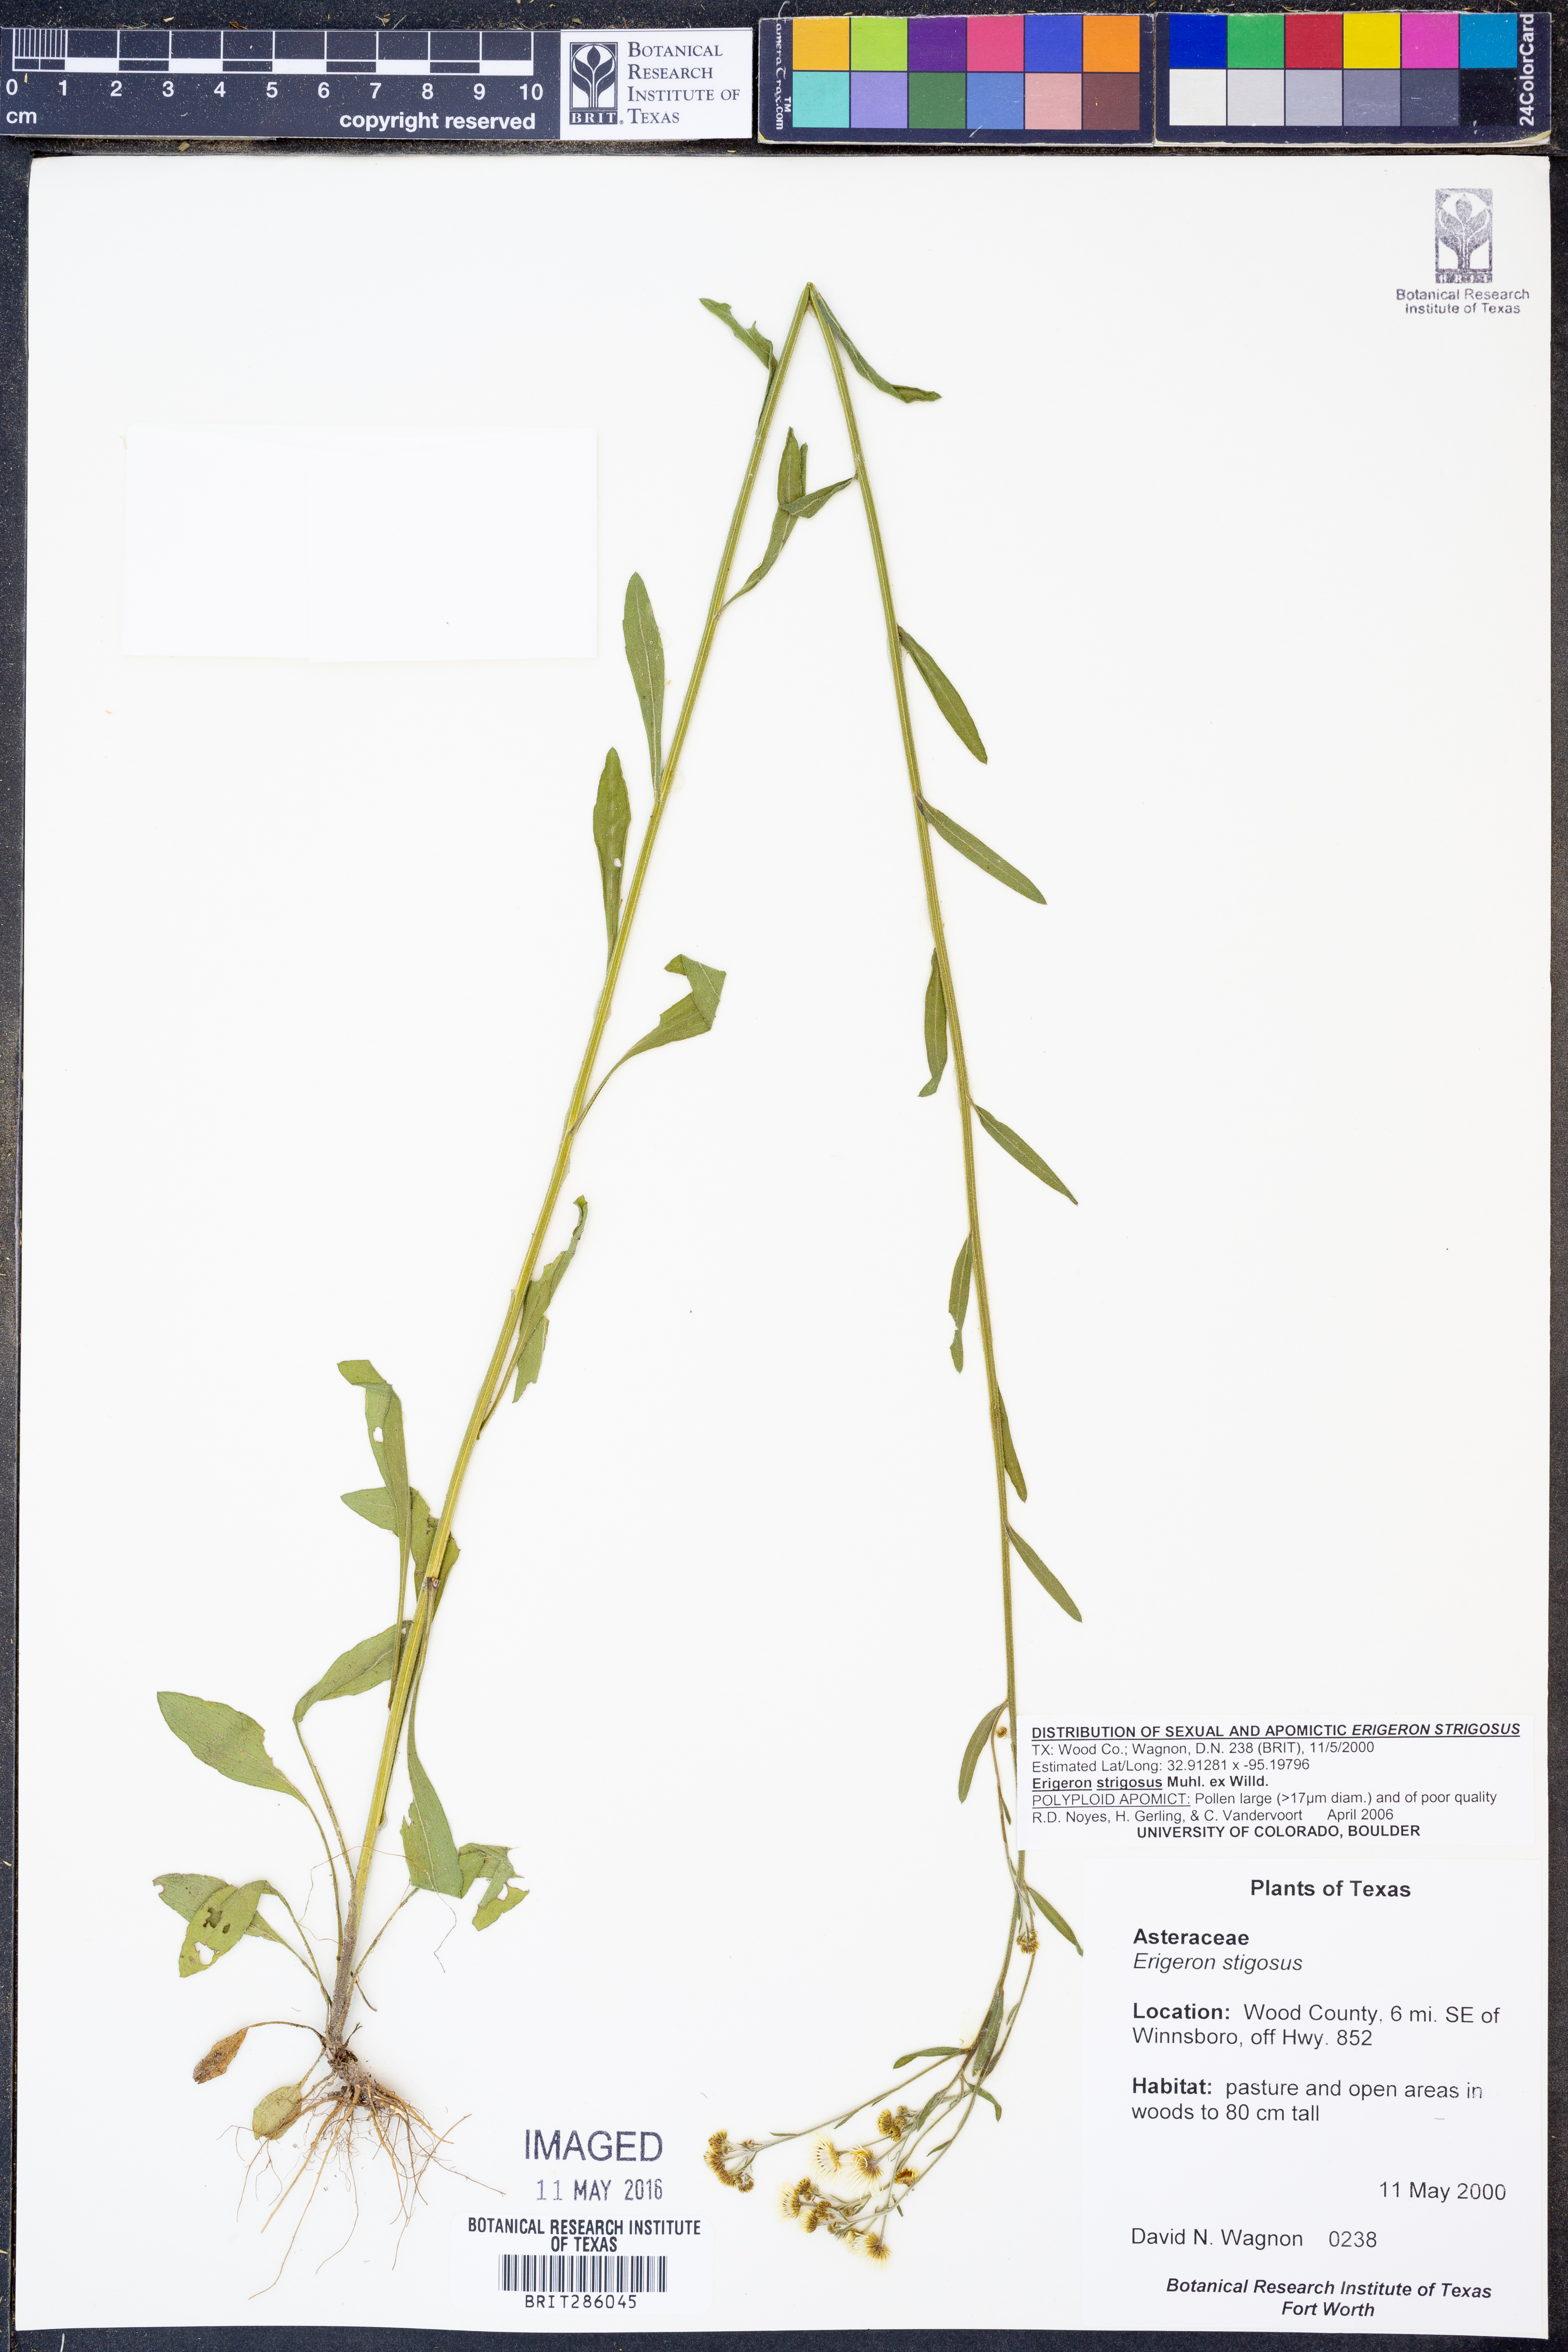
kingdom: Plantae
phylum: Tracheophyta
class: Magnoliopsida
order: Asterales
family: Asteraceae
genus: Erigeron
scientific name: Erigeron strigosus
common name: Common eastern fleabane
